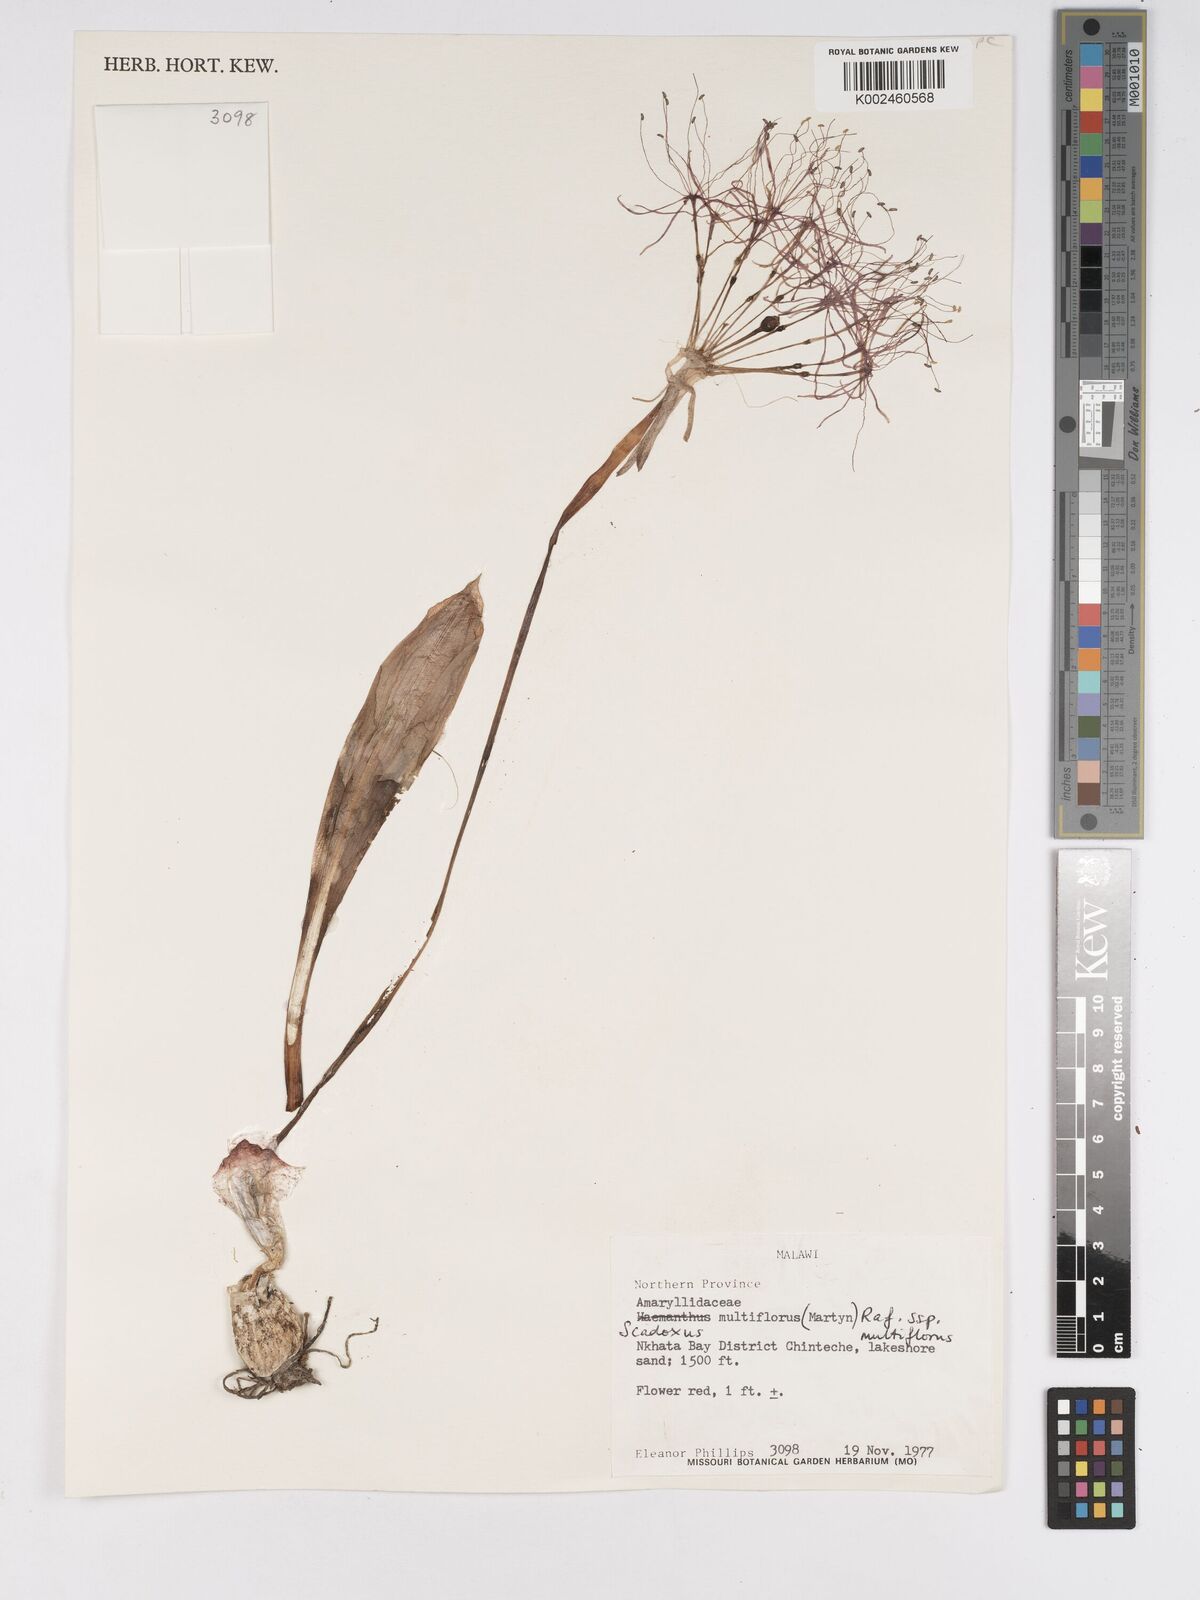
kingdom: Plantae
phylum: Tracheophyta
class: Liliopsida
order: Asparagales
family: Amaryllidaceae
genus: Scadoxus
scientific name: Scadoxus multiflorus
